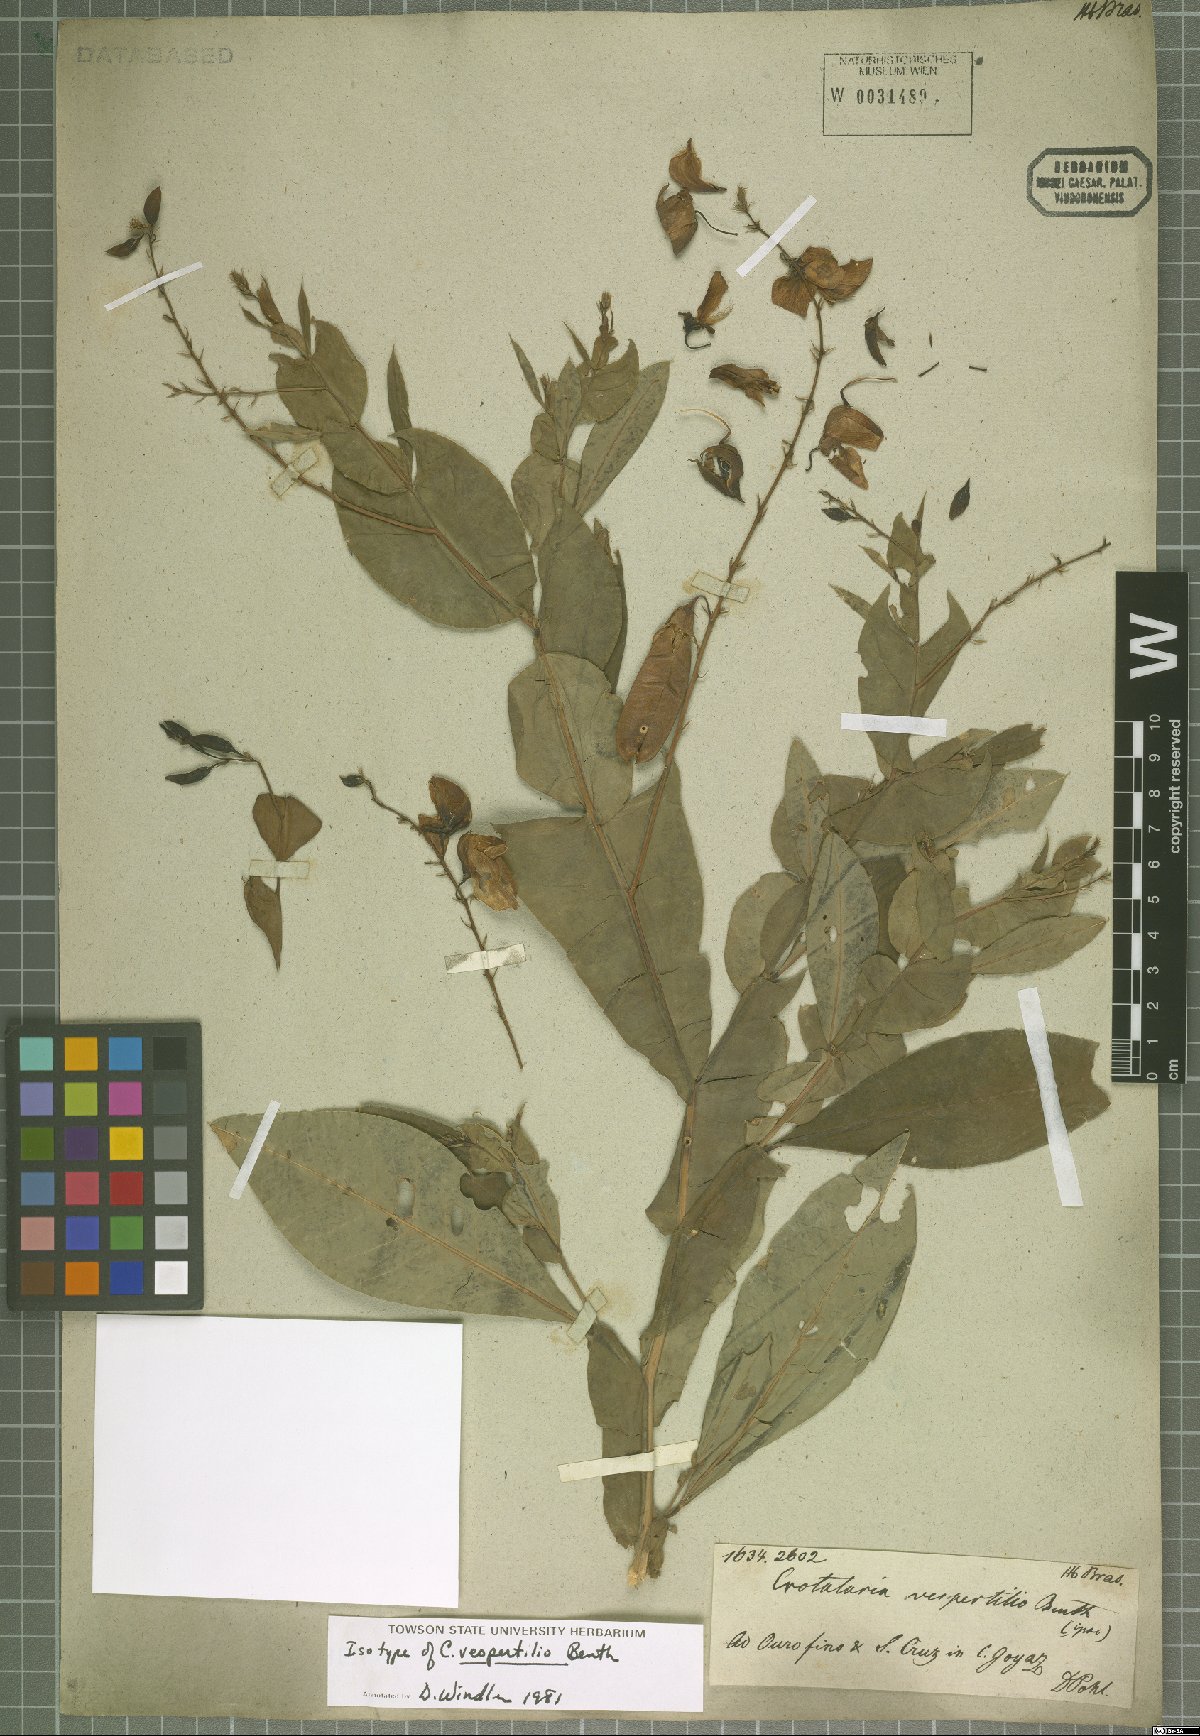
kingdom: Plantae
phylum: Tracheophyta
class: Magnoliopsida
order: Fabales
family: Fabaceae
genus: Crotalaria
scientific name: Crotalaria vespertilio
